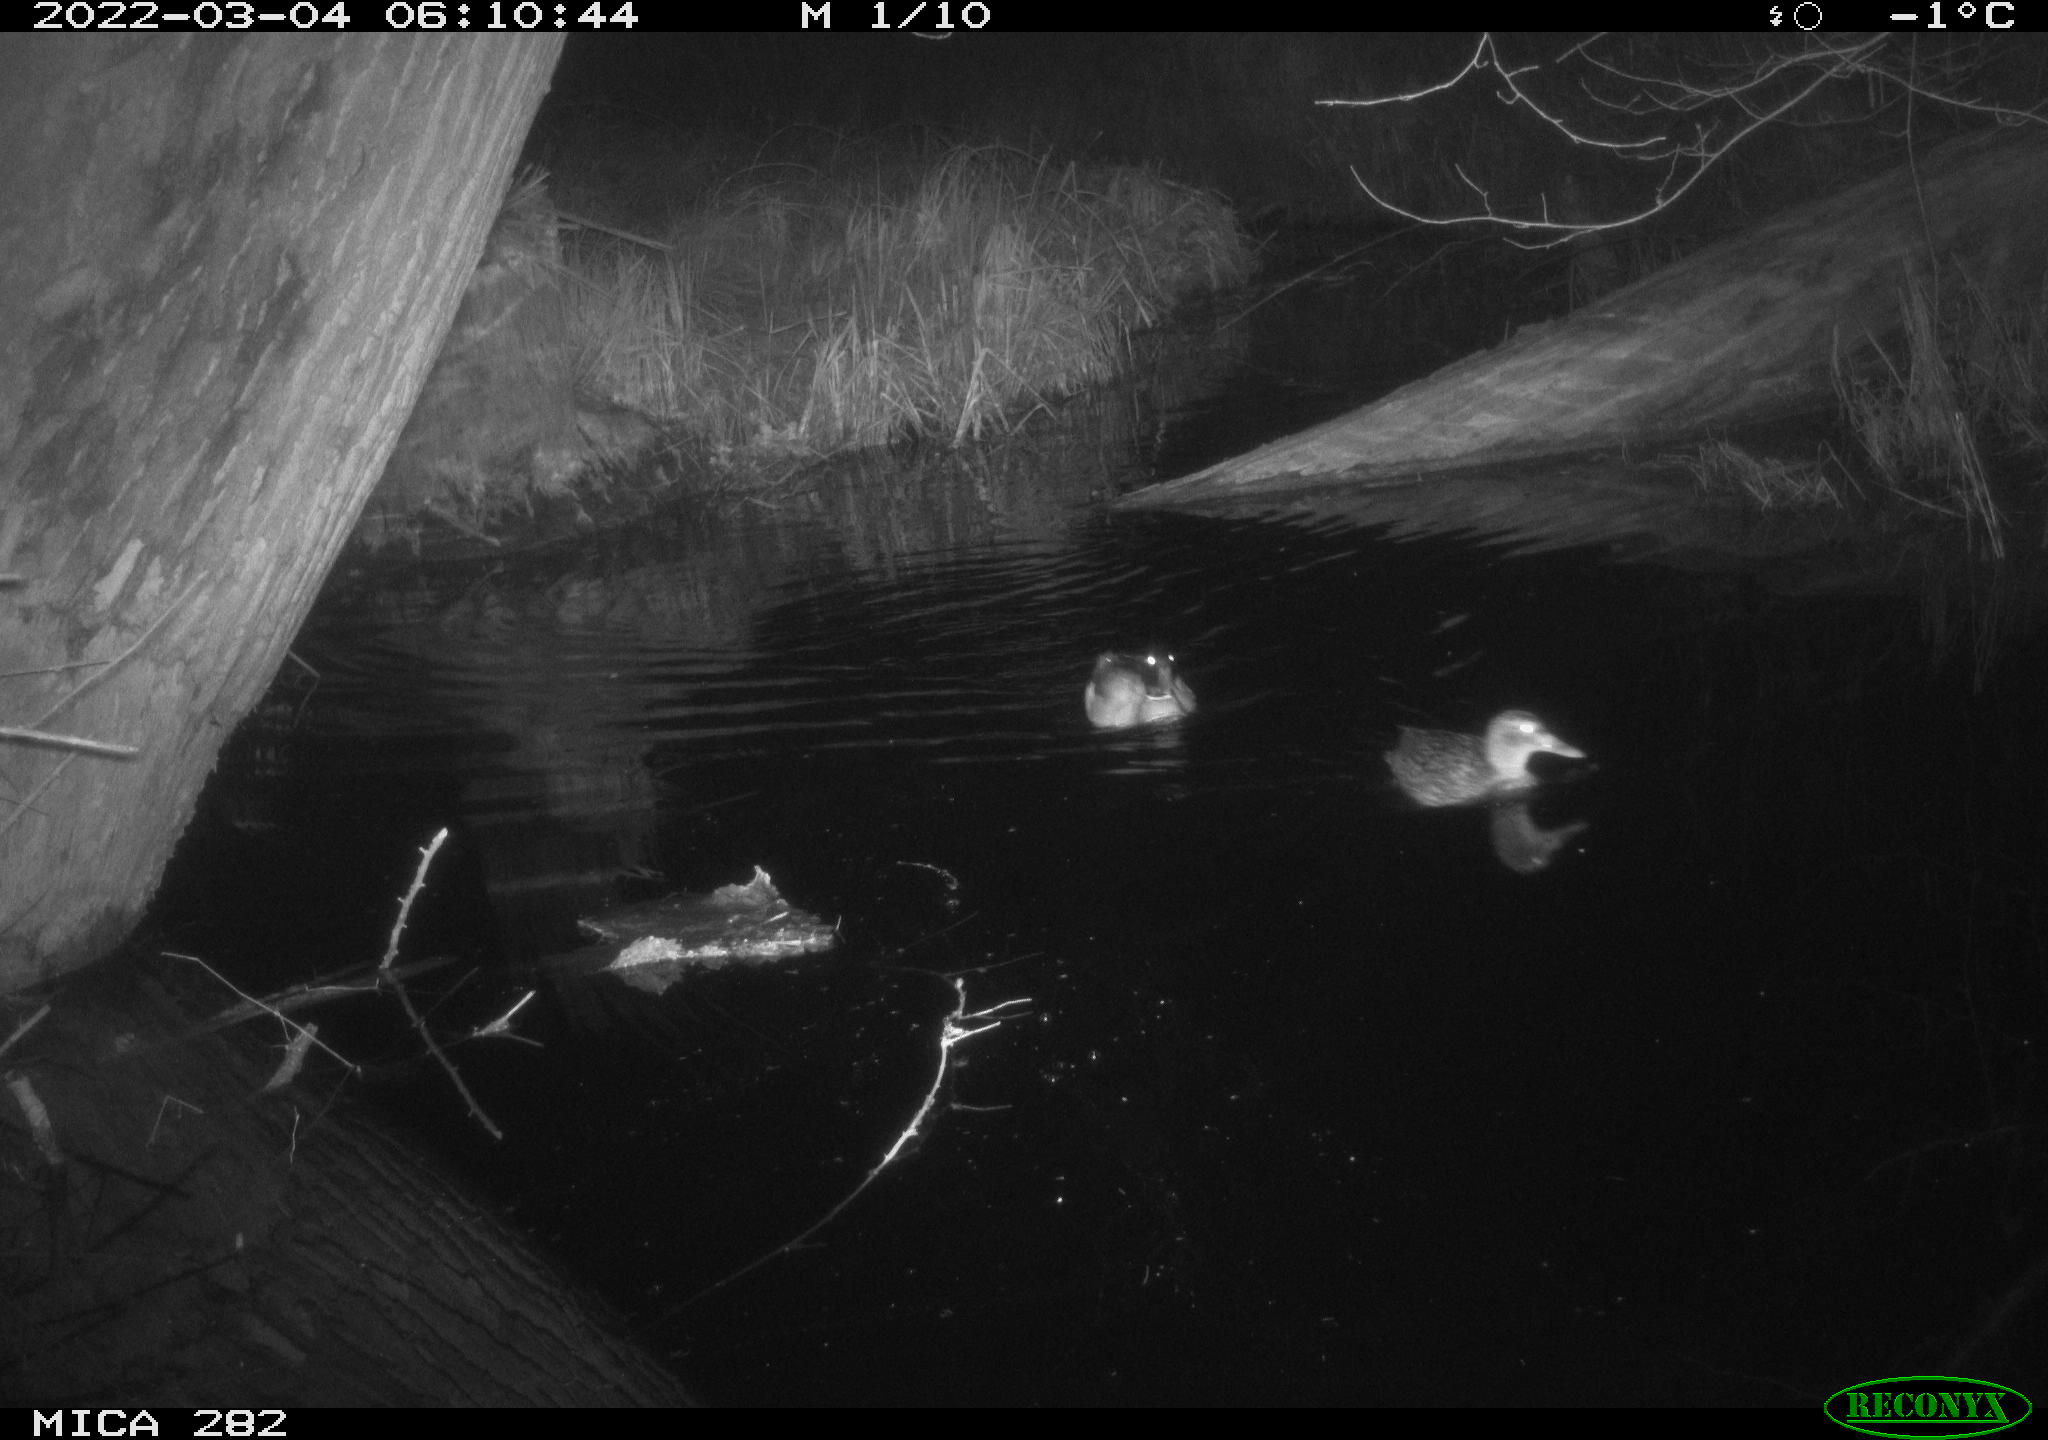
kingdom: Animalia
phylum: Chordata
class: Aves
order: Anseriformes
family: Anatidae
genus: Anas
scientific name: Anas platyrhynchos
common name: Mallard
